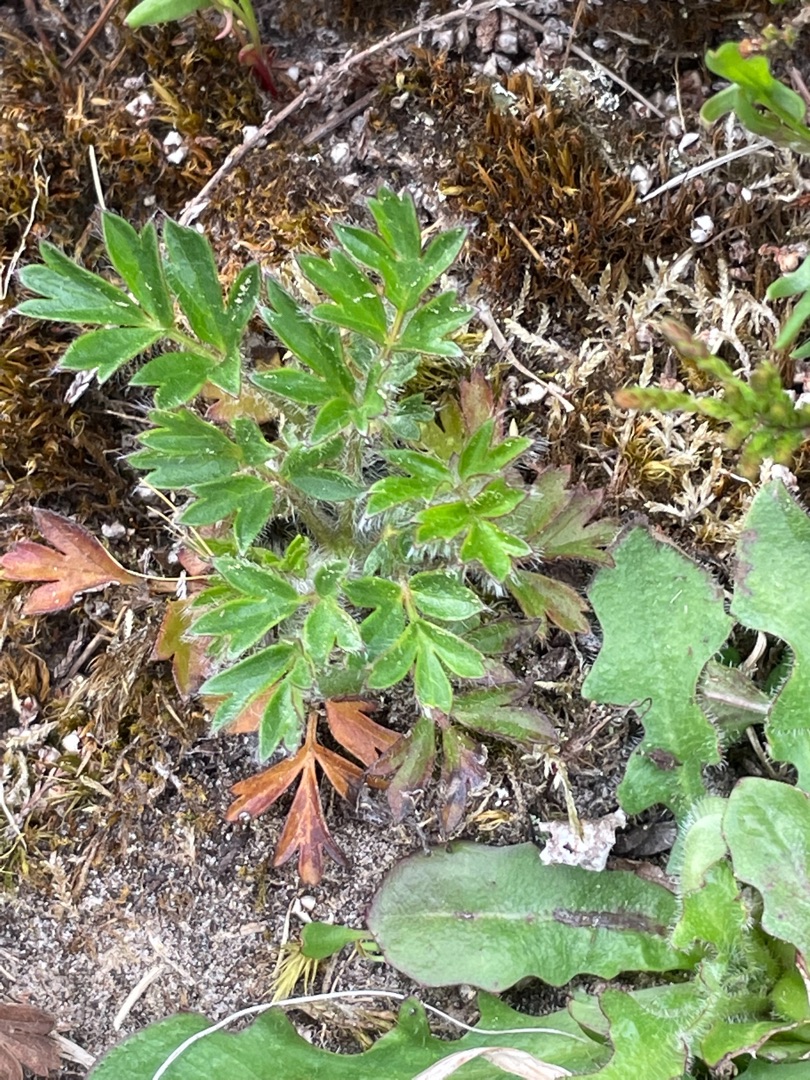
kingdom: Plantae
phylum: Tracheophyta
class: Magnoliopsida
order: Ranunculales
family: Ranunculaceae
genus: Pulsatilla
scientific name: Pulsatilla vernalis
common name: Vår-kobjælde
